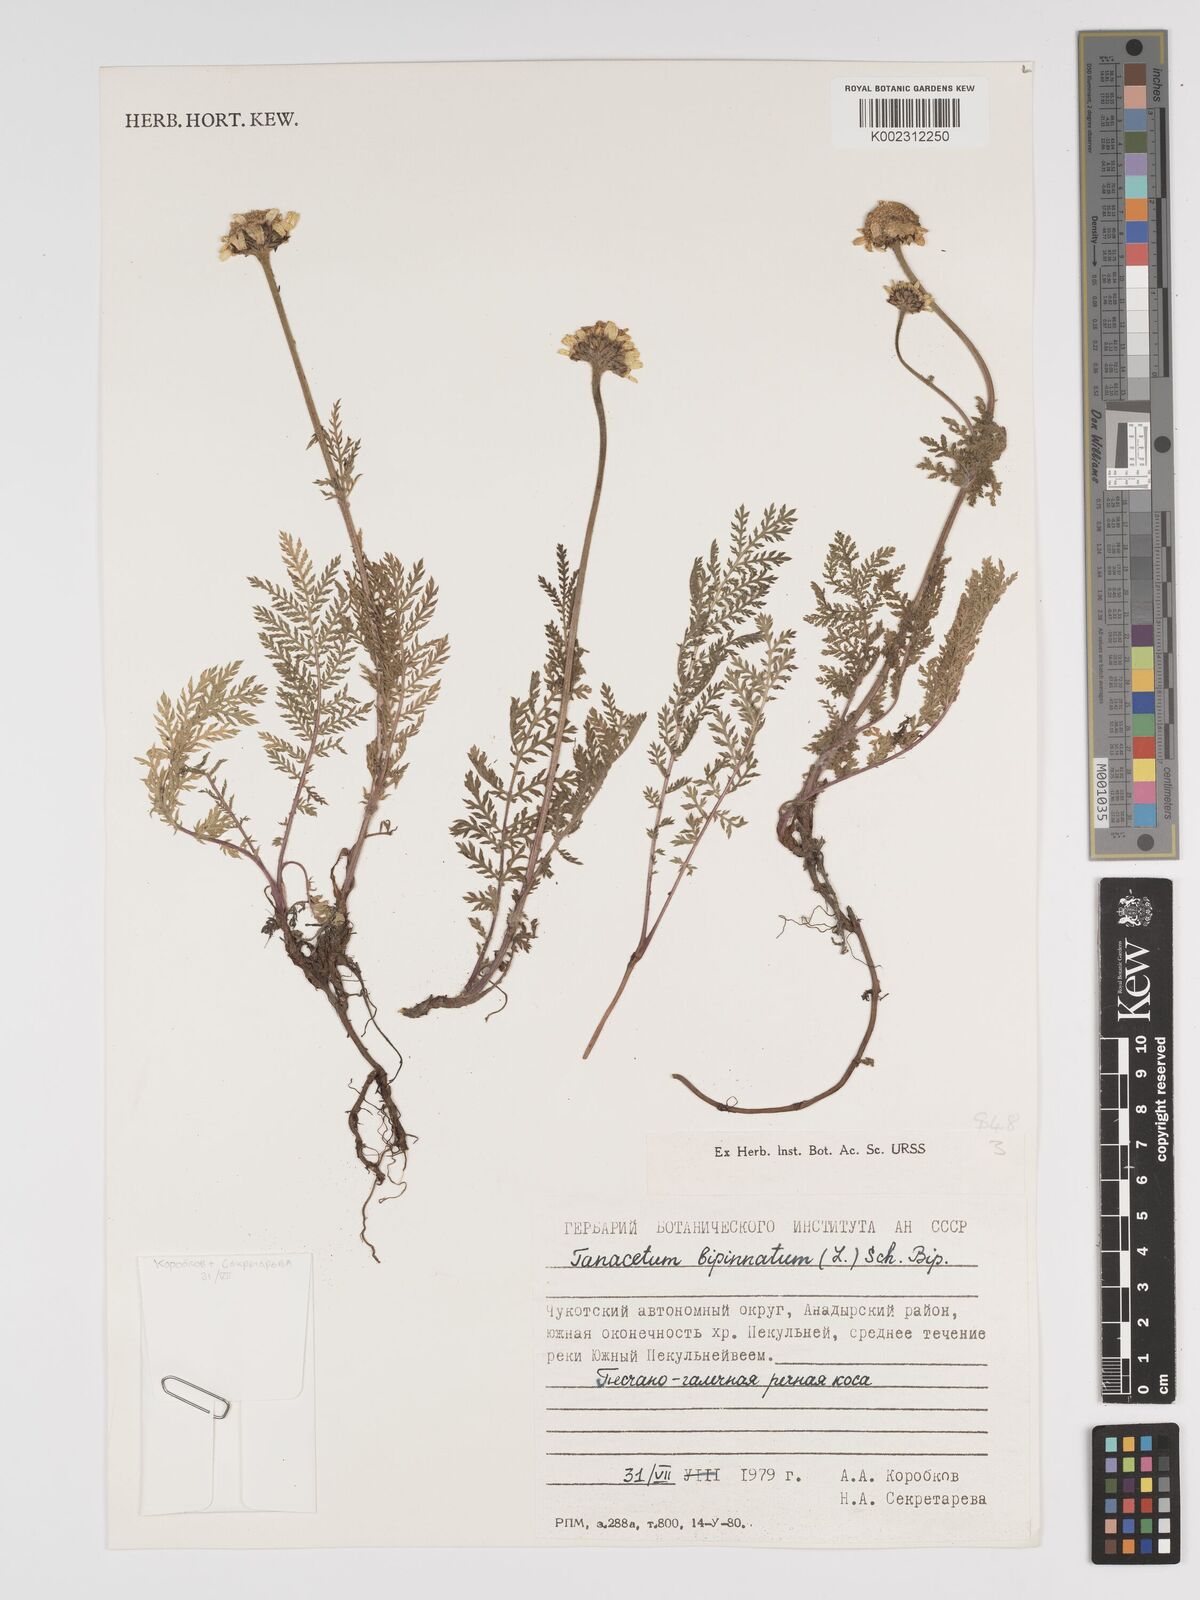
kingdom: Plantae
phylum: Tracheophyta
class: Magnoliopsida
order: Asterales
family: Asteraceae
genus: Tanacetum
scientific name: Tanacetum bipinnatum
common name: Dwarf tansy
